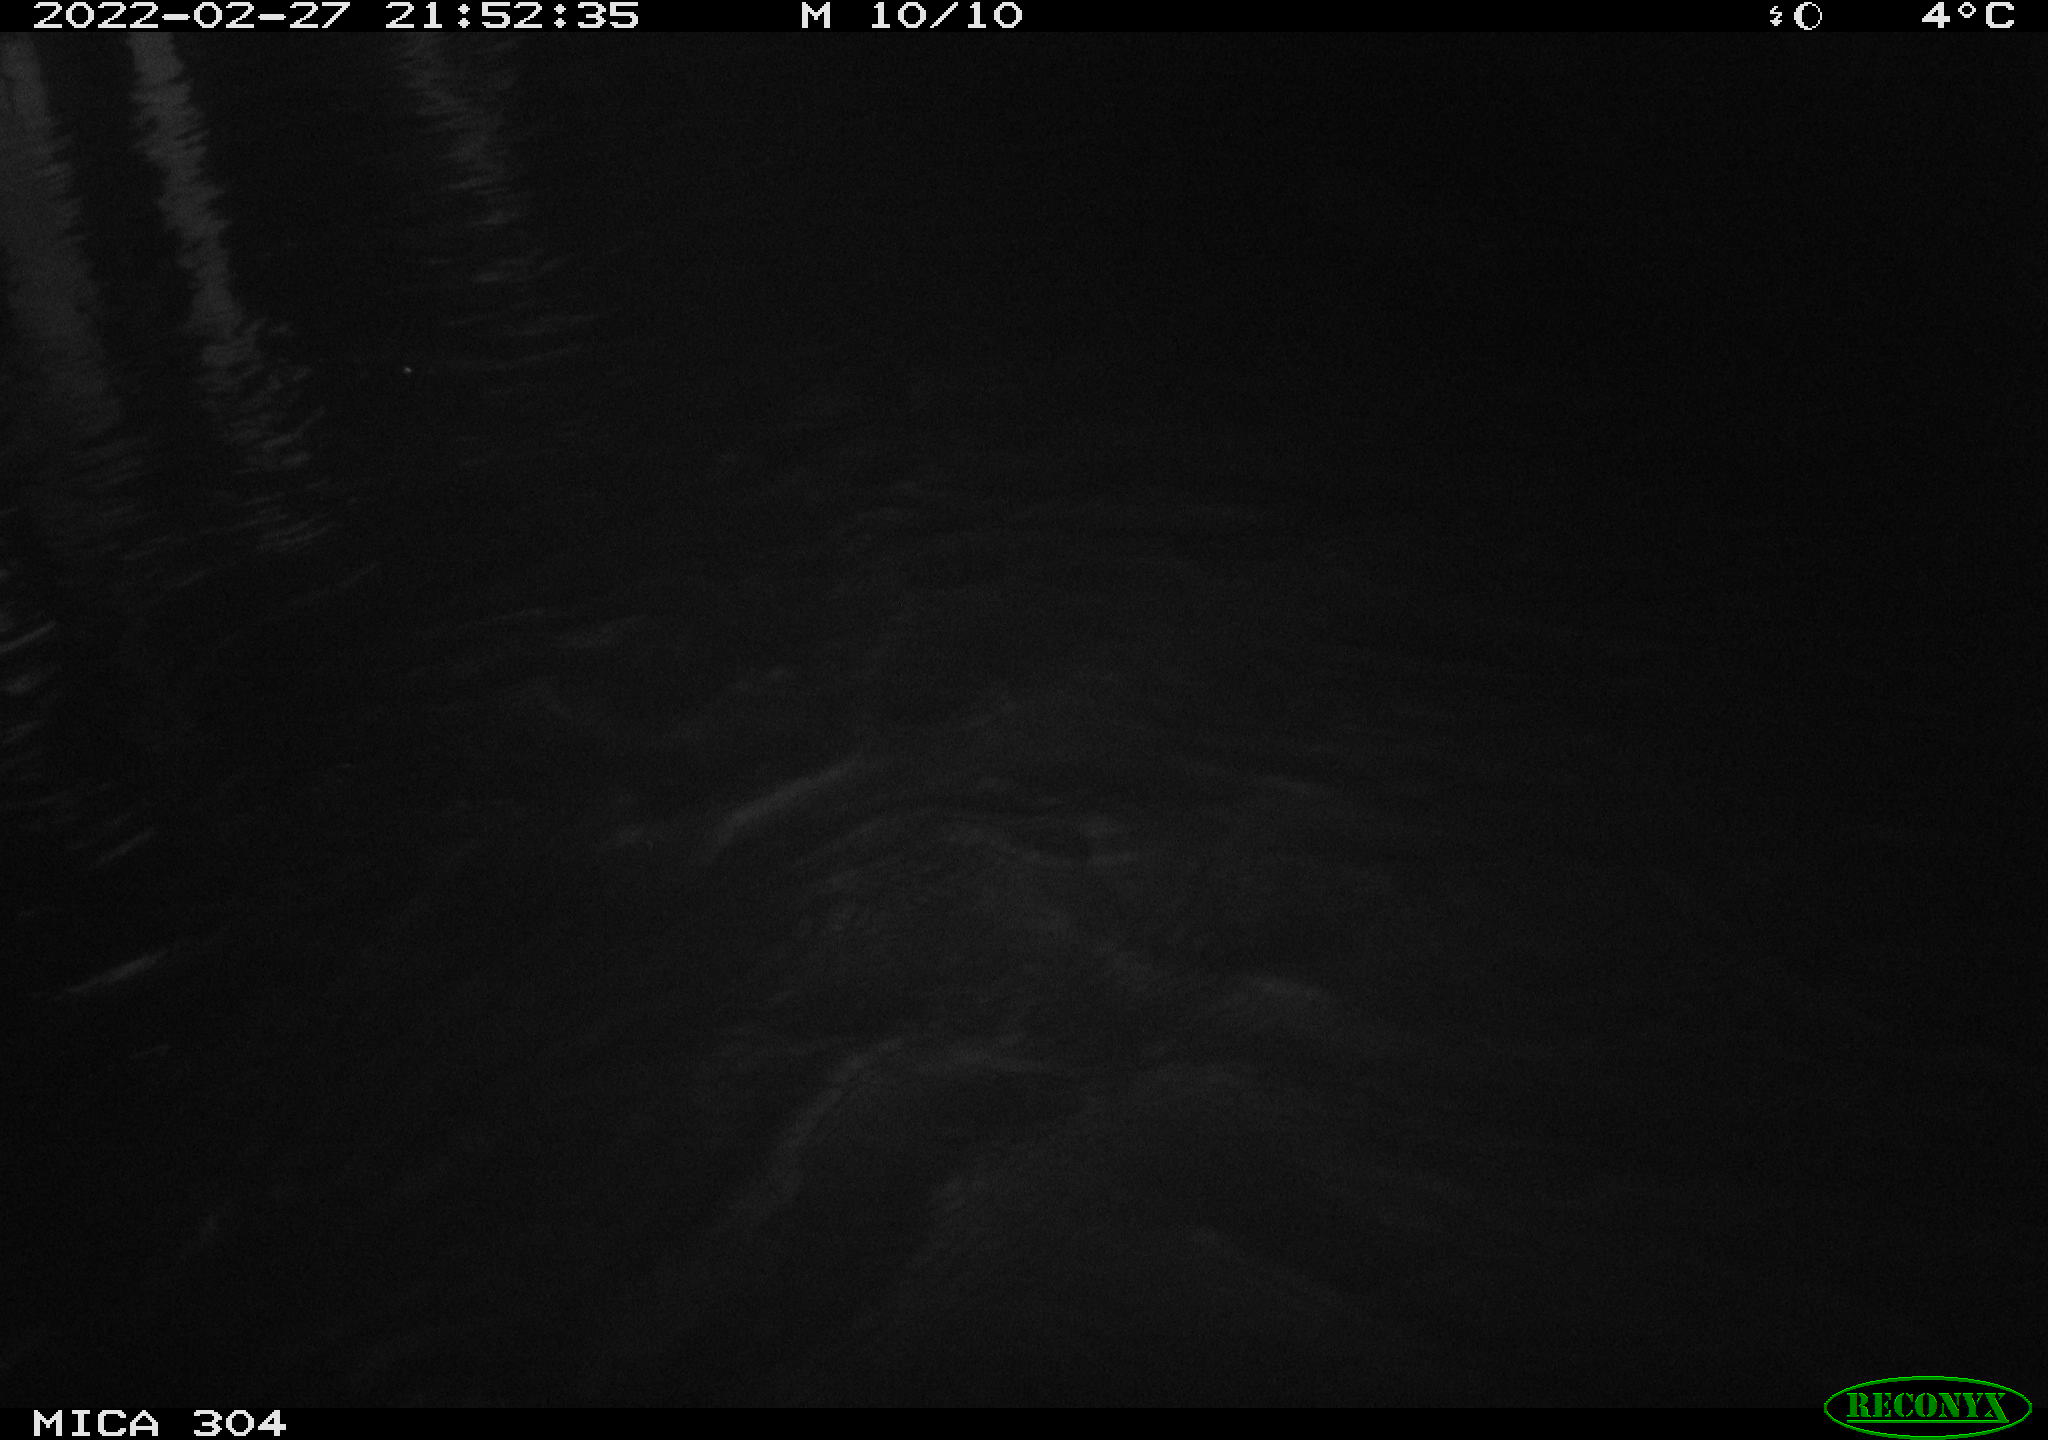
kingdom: Animalia
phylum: Chordata
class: Aves
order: Anseriformes
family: Anatidae
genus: Anas
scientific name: Anas platyrhynchos
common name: Mallard
